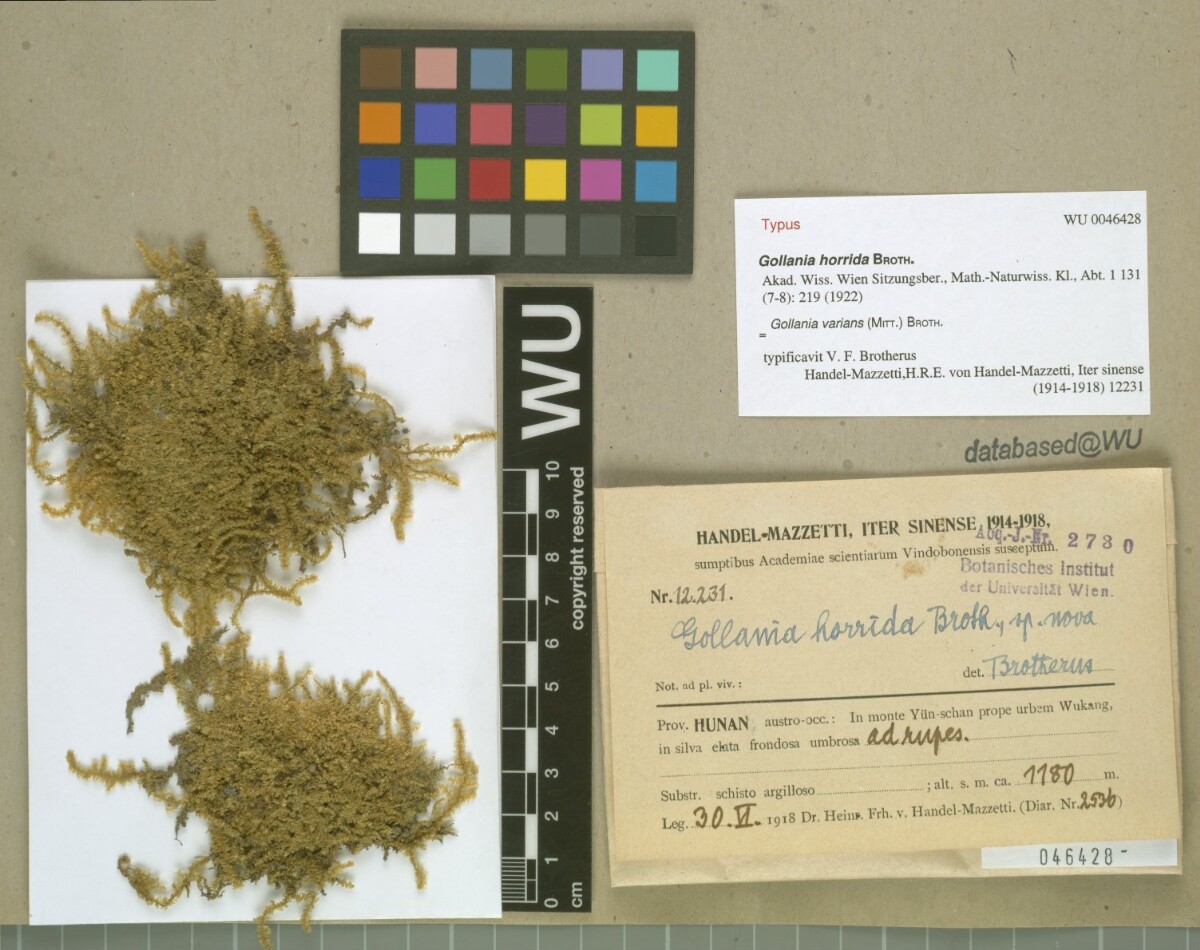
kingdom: Plantae
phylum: Bryophyta
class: Bryopsida
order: Hypnales
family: Hypnaceae
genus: Gollania
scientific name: Gollania varians
